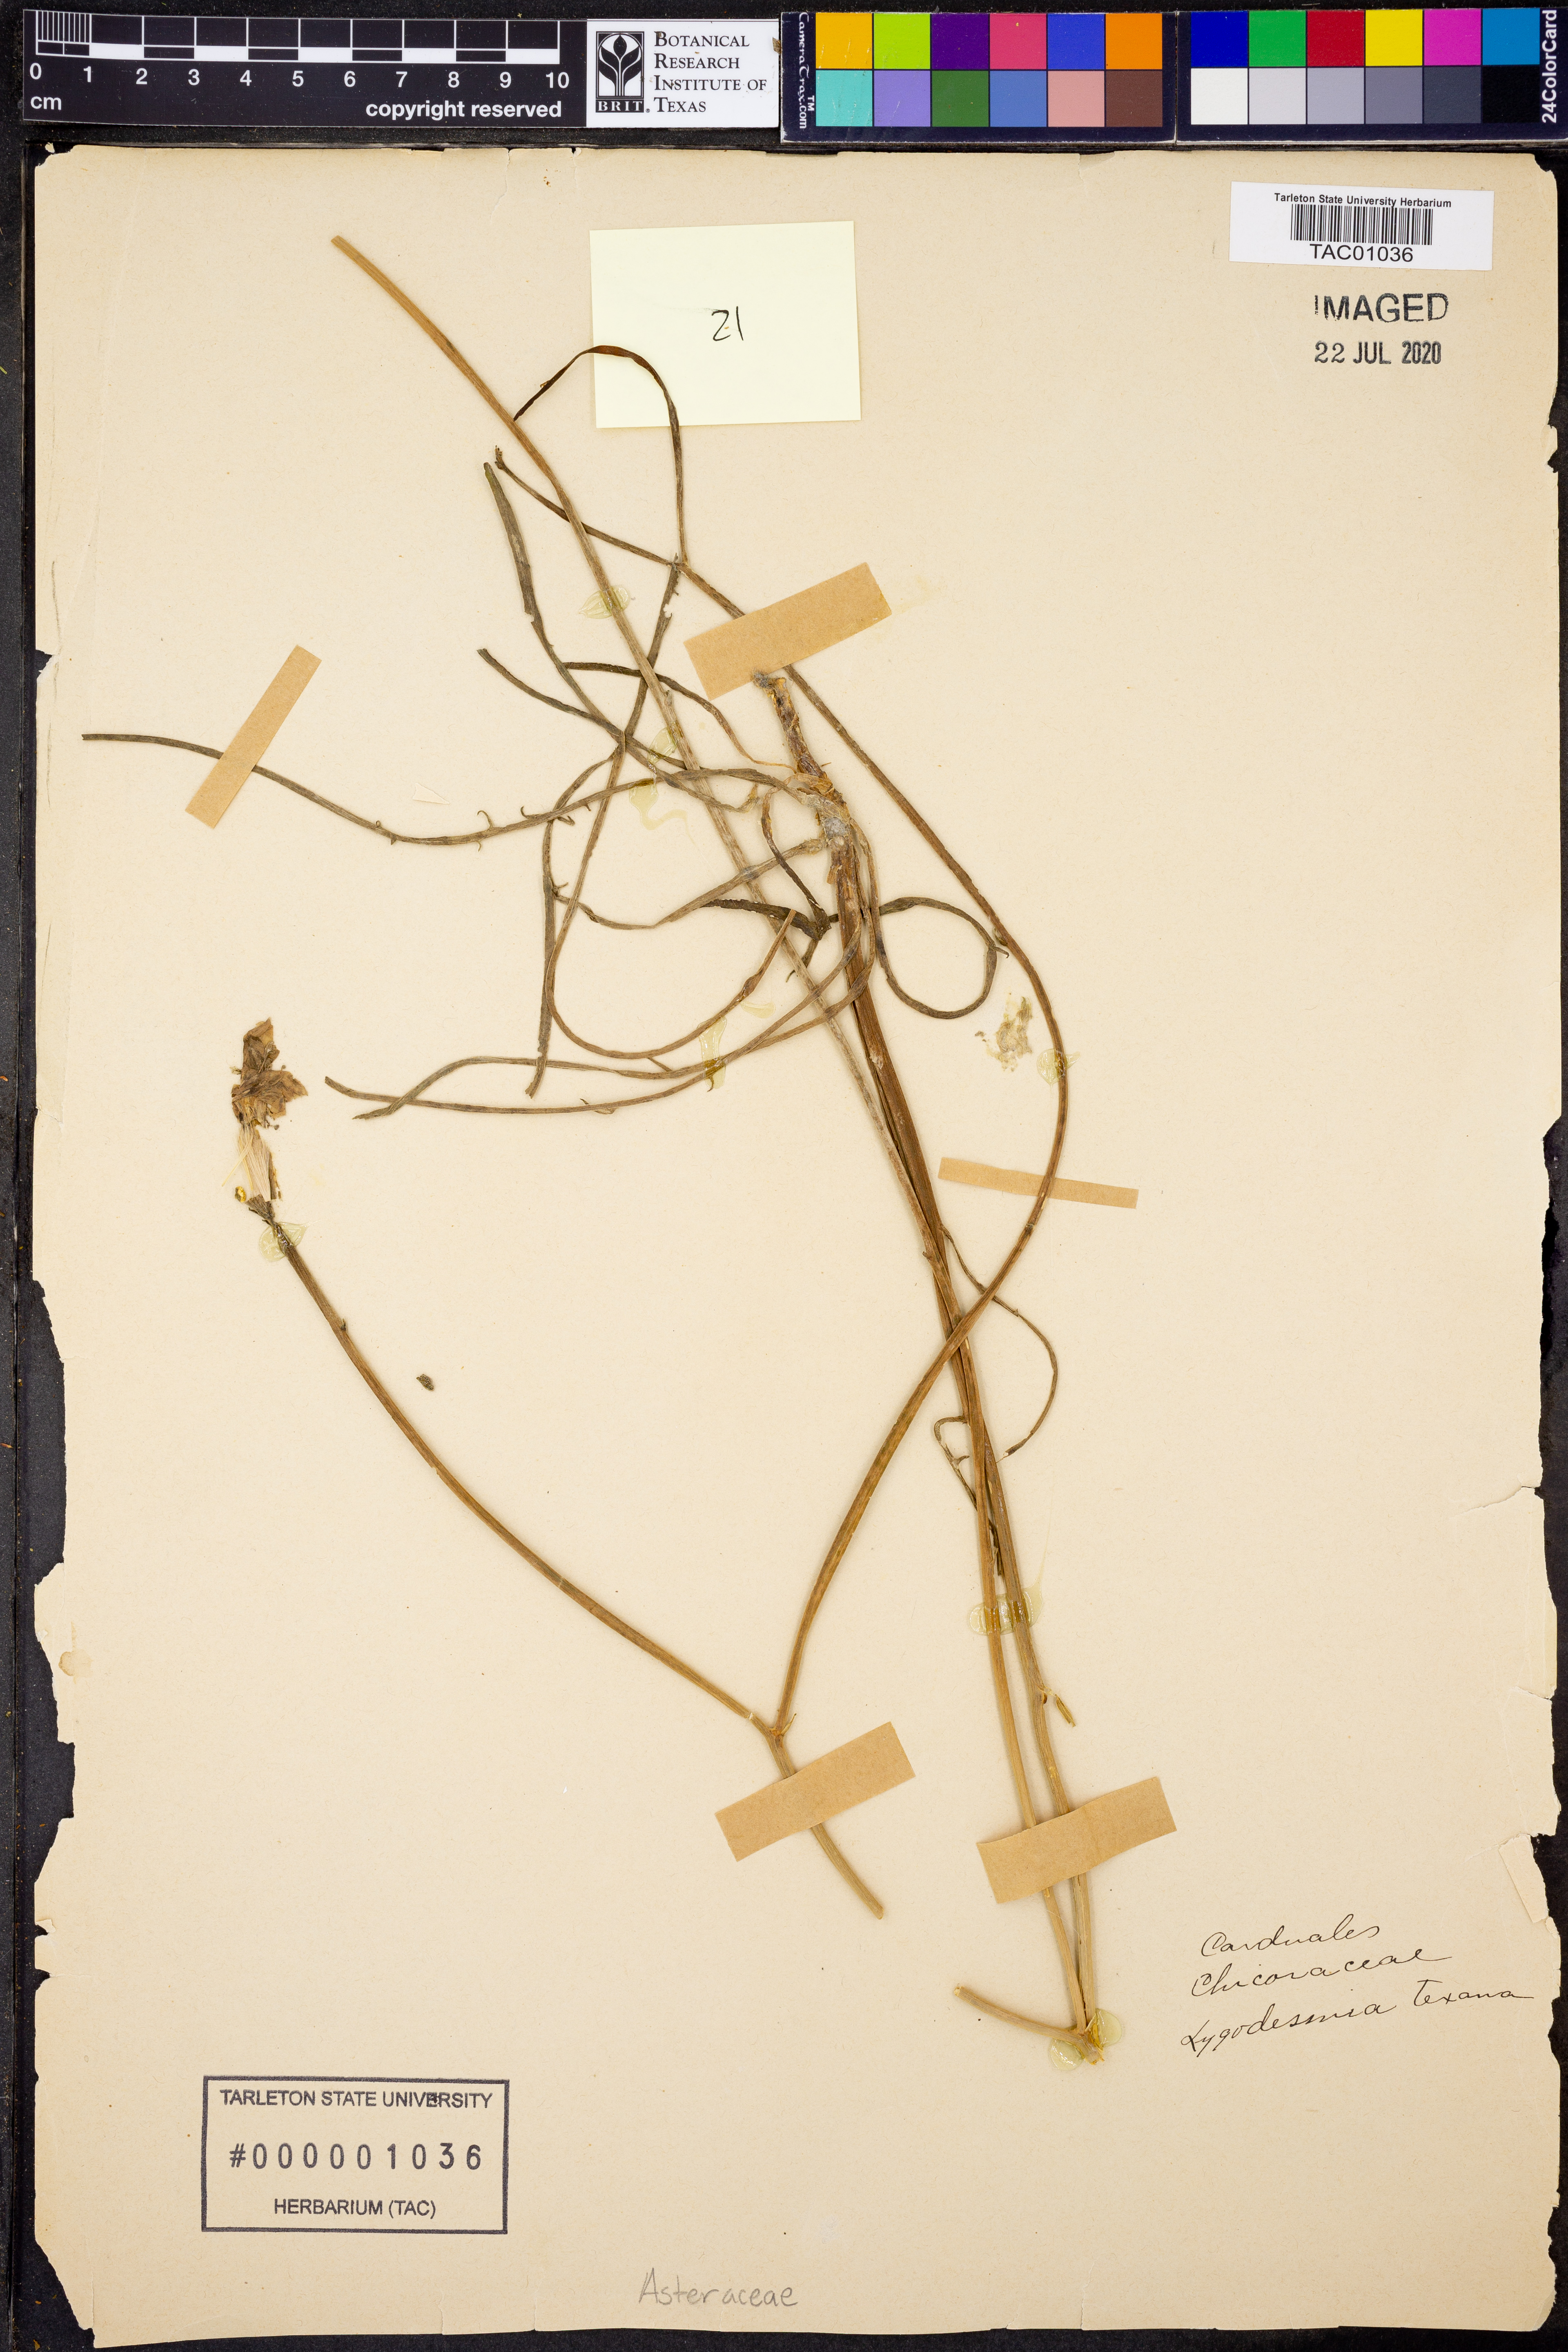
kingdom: Plantae
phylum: Tracheophyta
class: Magnoliopsida
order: Asterales
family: Asteraceae
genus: Lygodesmia
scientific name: Lygodesmia texana
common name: Texas skeleton-plant
